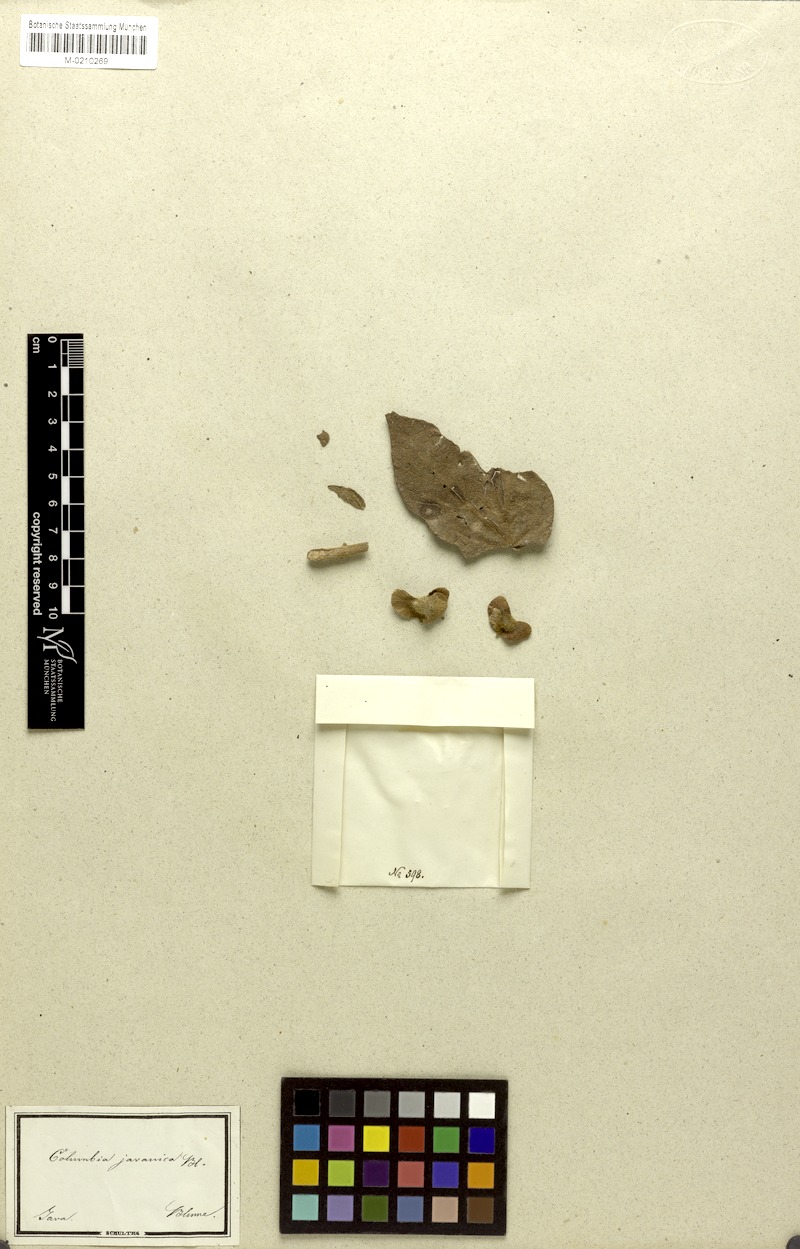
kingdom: Plantae
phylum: Tracheophyta
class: Magnoliopsida
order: Malvales
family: Malvaceae
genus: Colona
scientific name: Colona javanica
